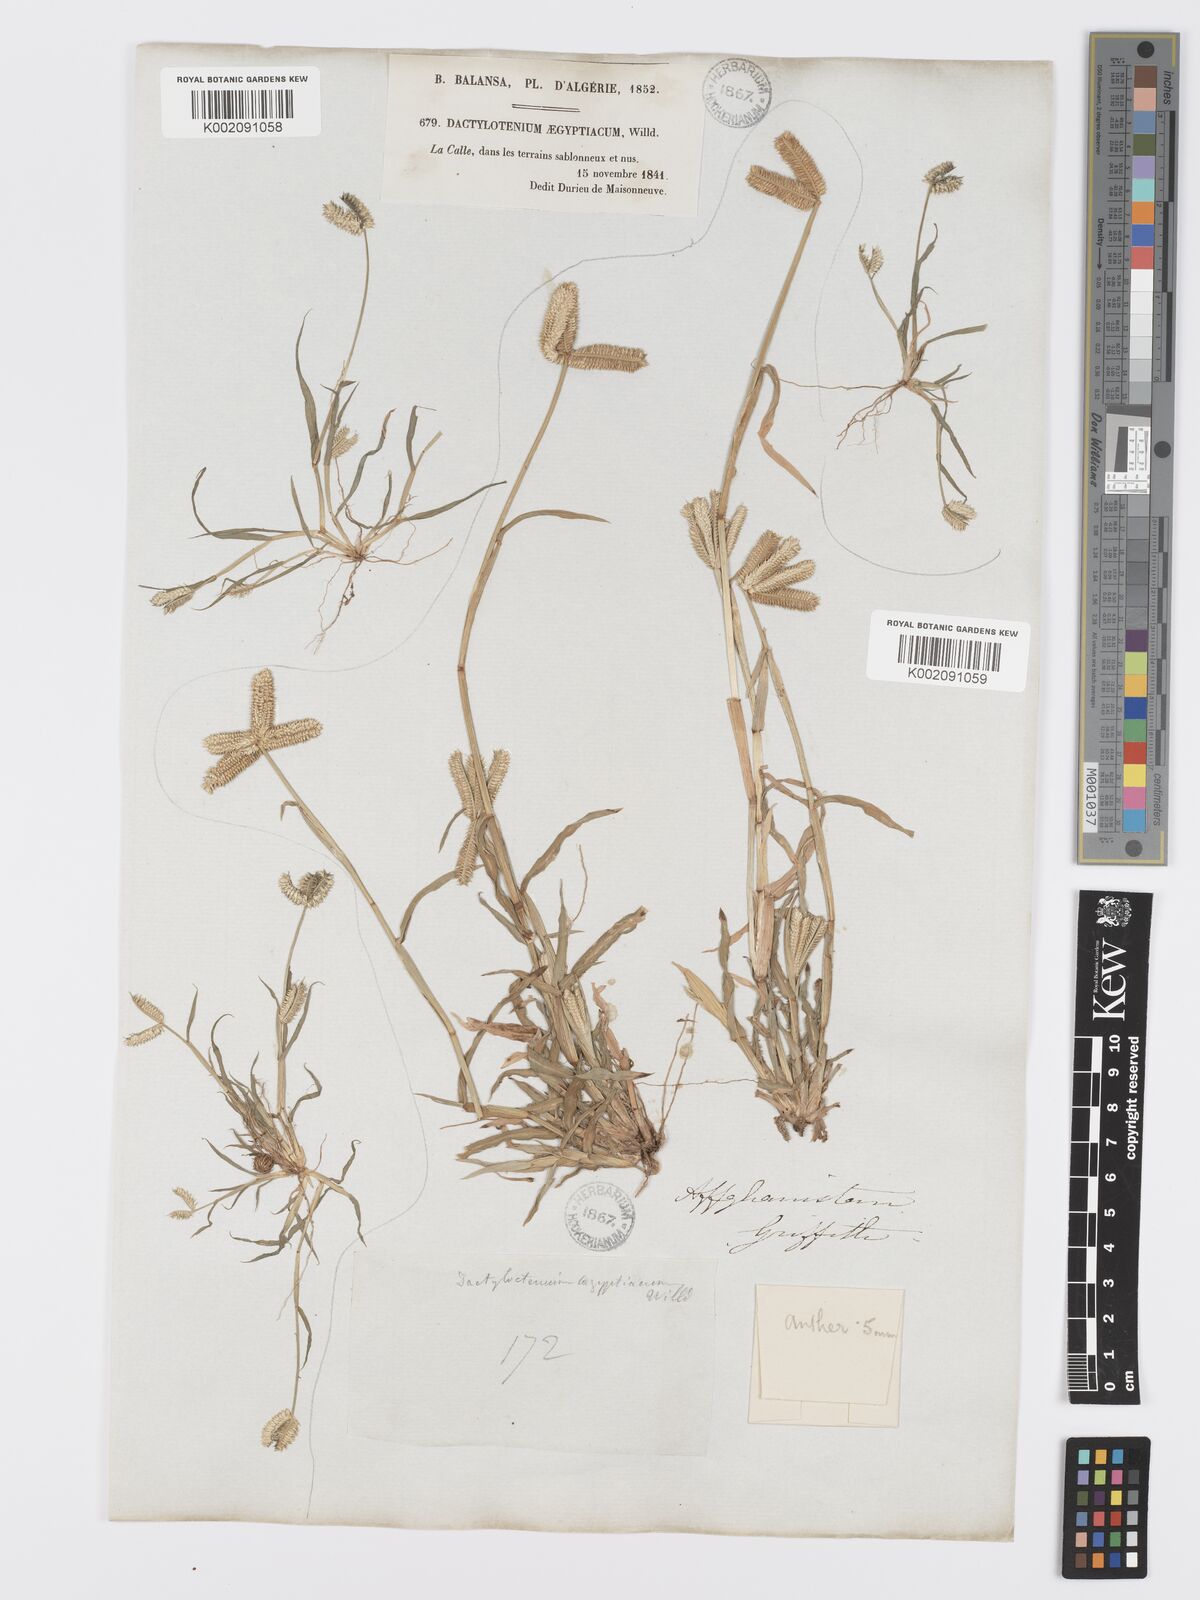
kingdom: Plantae
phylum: Tracheophyta
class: Liliopsida
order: Poales
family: Poaceae
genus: Dactyloctenium
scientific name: Dactyloctenium aegyptium
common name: Egyptian grass
